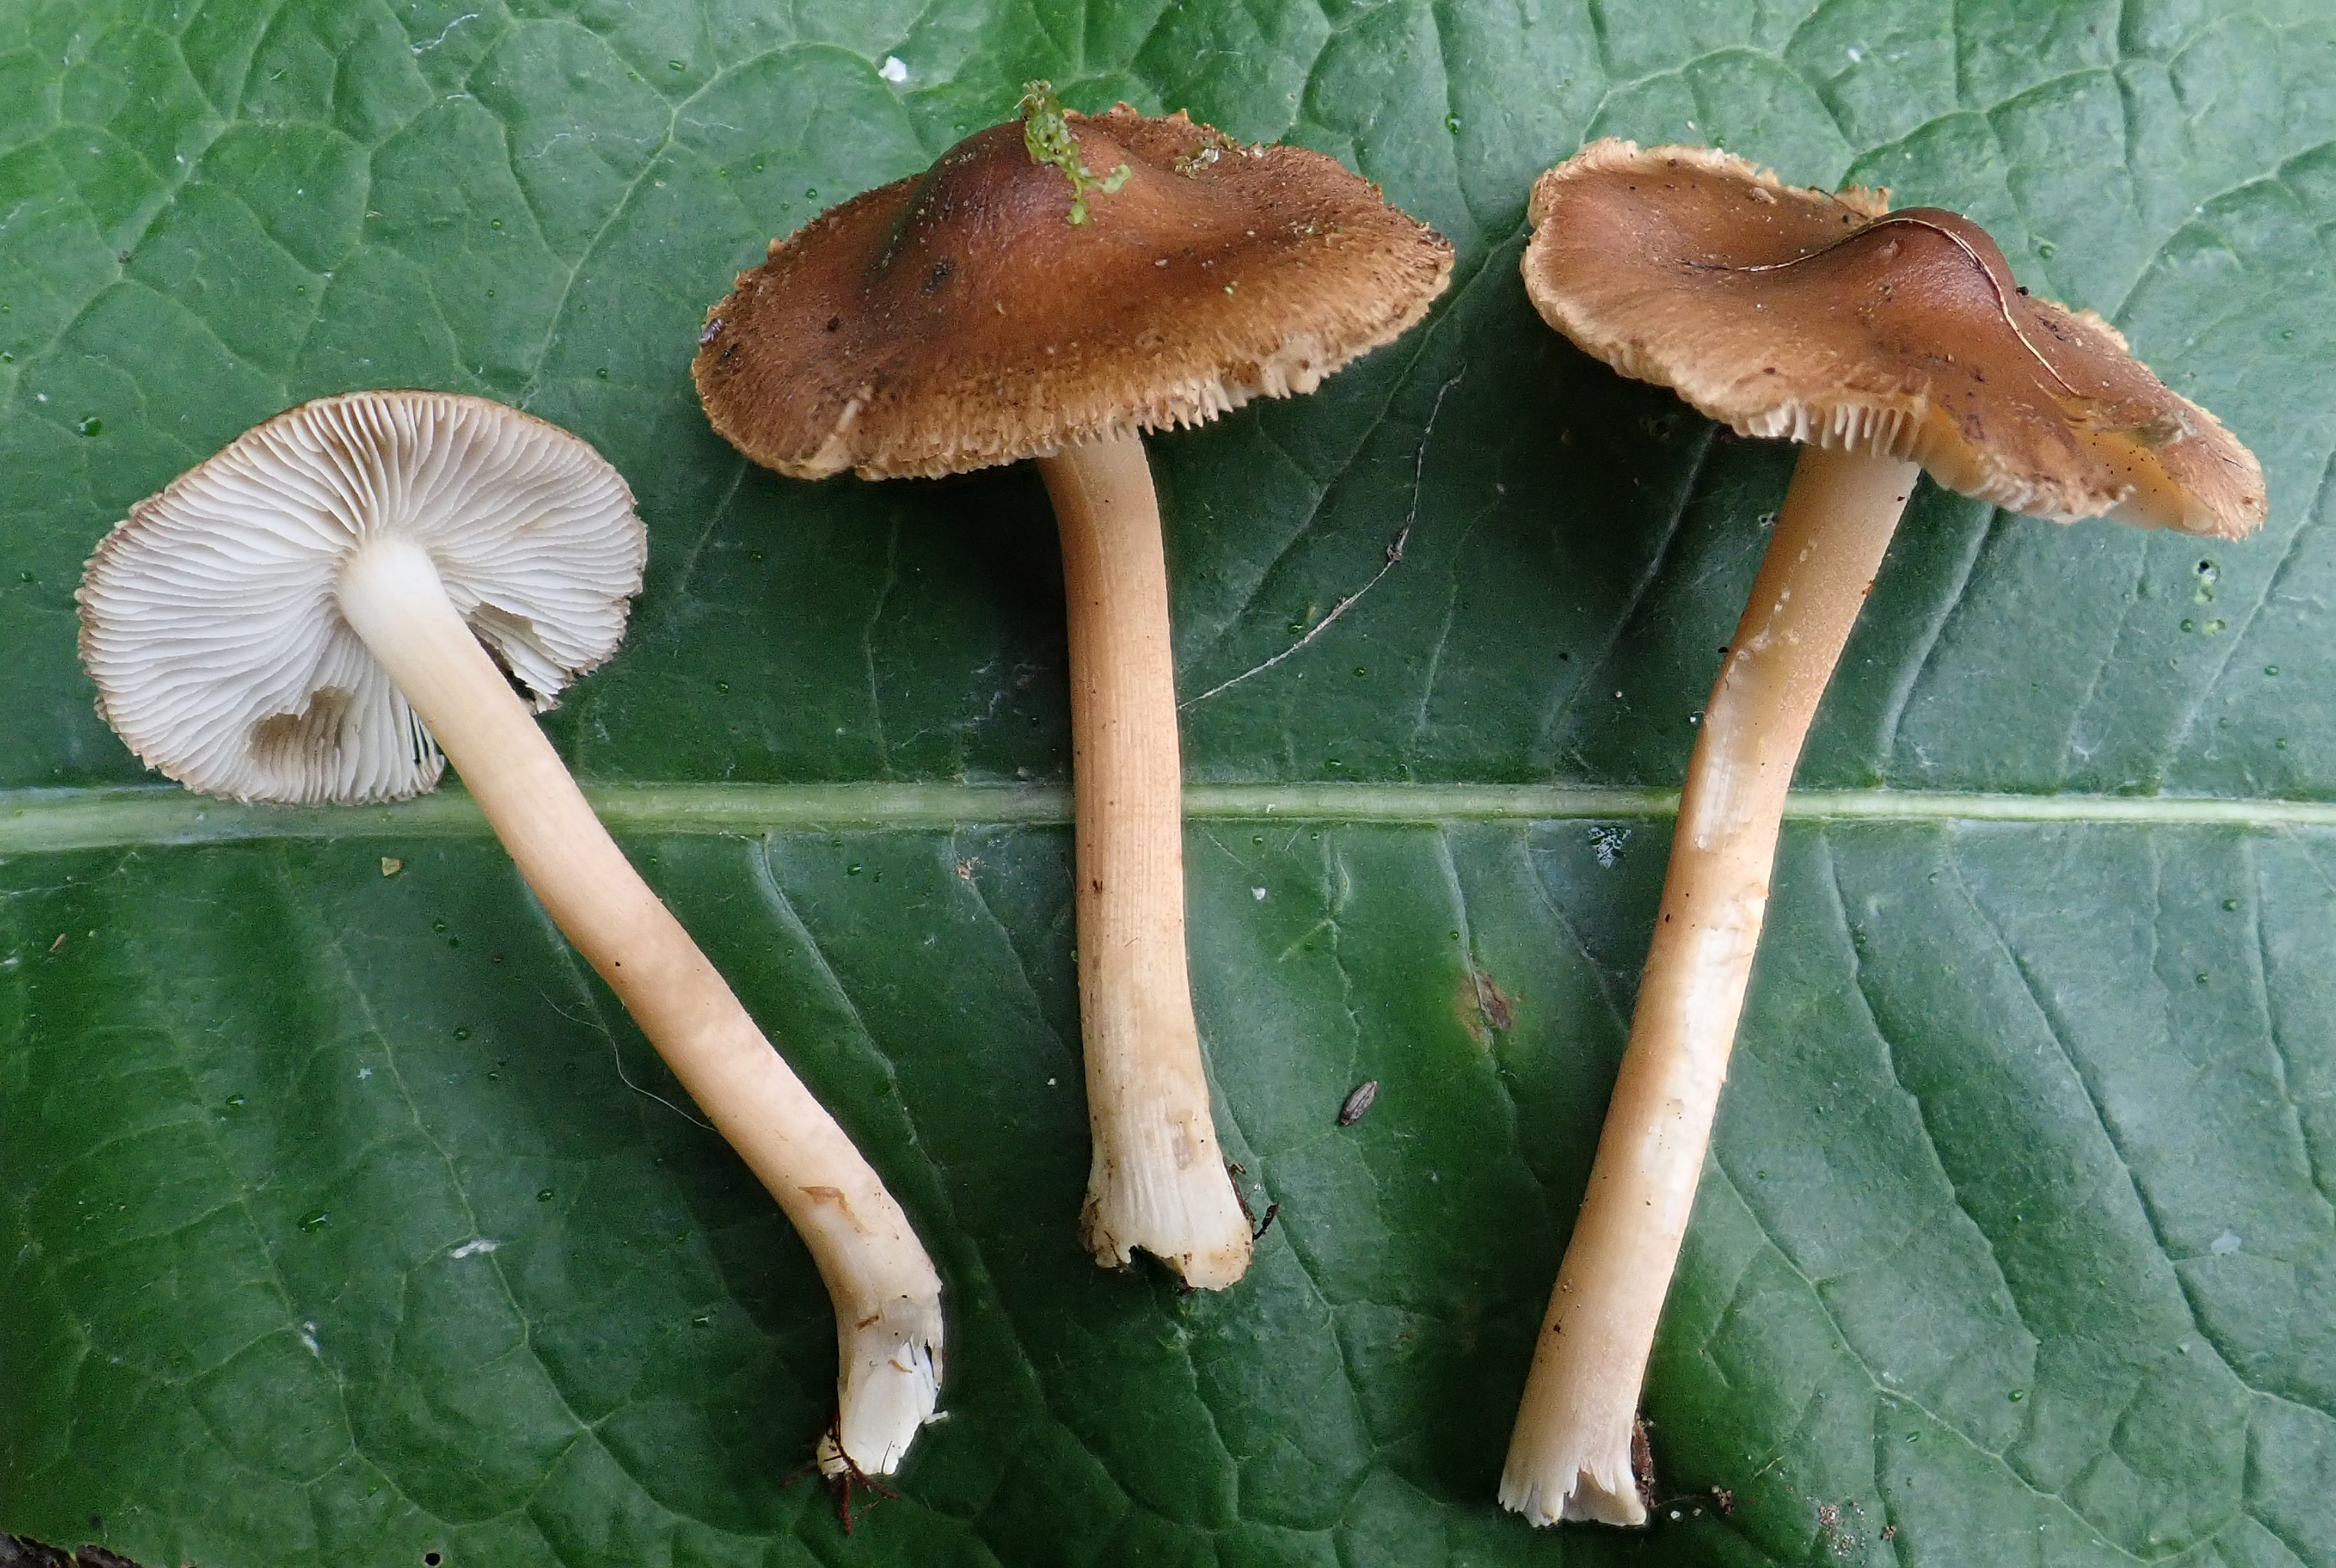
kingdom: Fungi
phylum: Basidiomycota
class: Agaricomycetes
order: Agaricales
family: Inocybaceae
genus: Inocybe
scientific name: Inocybe lindrothii
